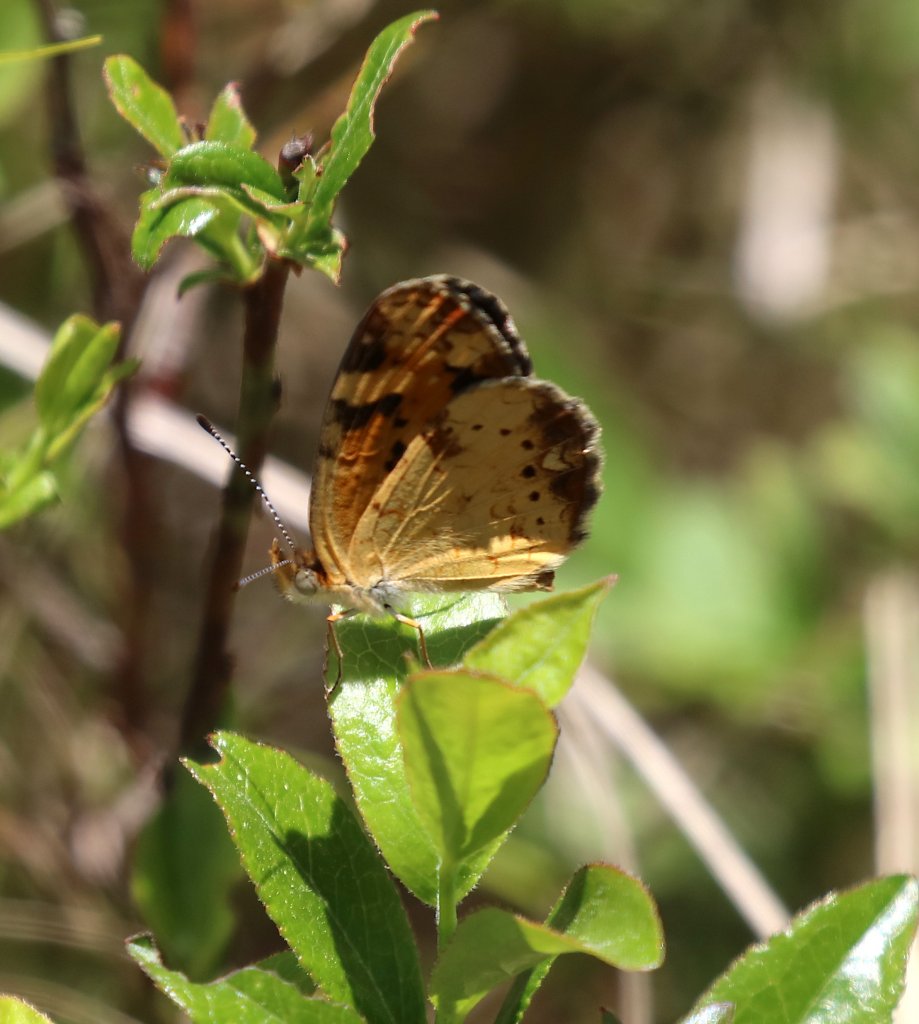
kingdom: Animalia
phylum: Arthropoda
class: Insecta
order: Lepidoptera
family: Nymphalidae
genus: Phyciodes
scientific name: Phyciodes tharos
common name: Pearl Crescent
